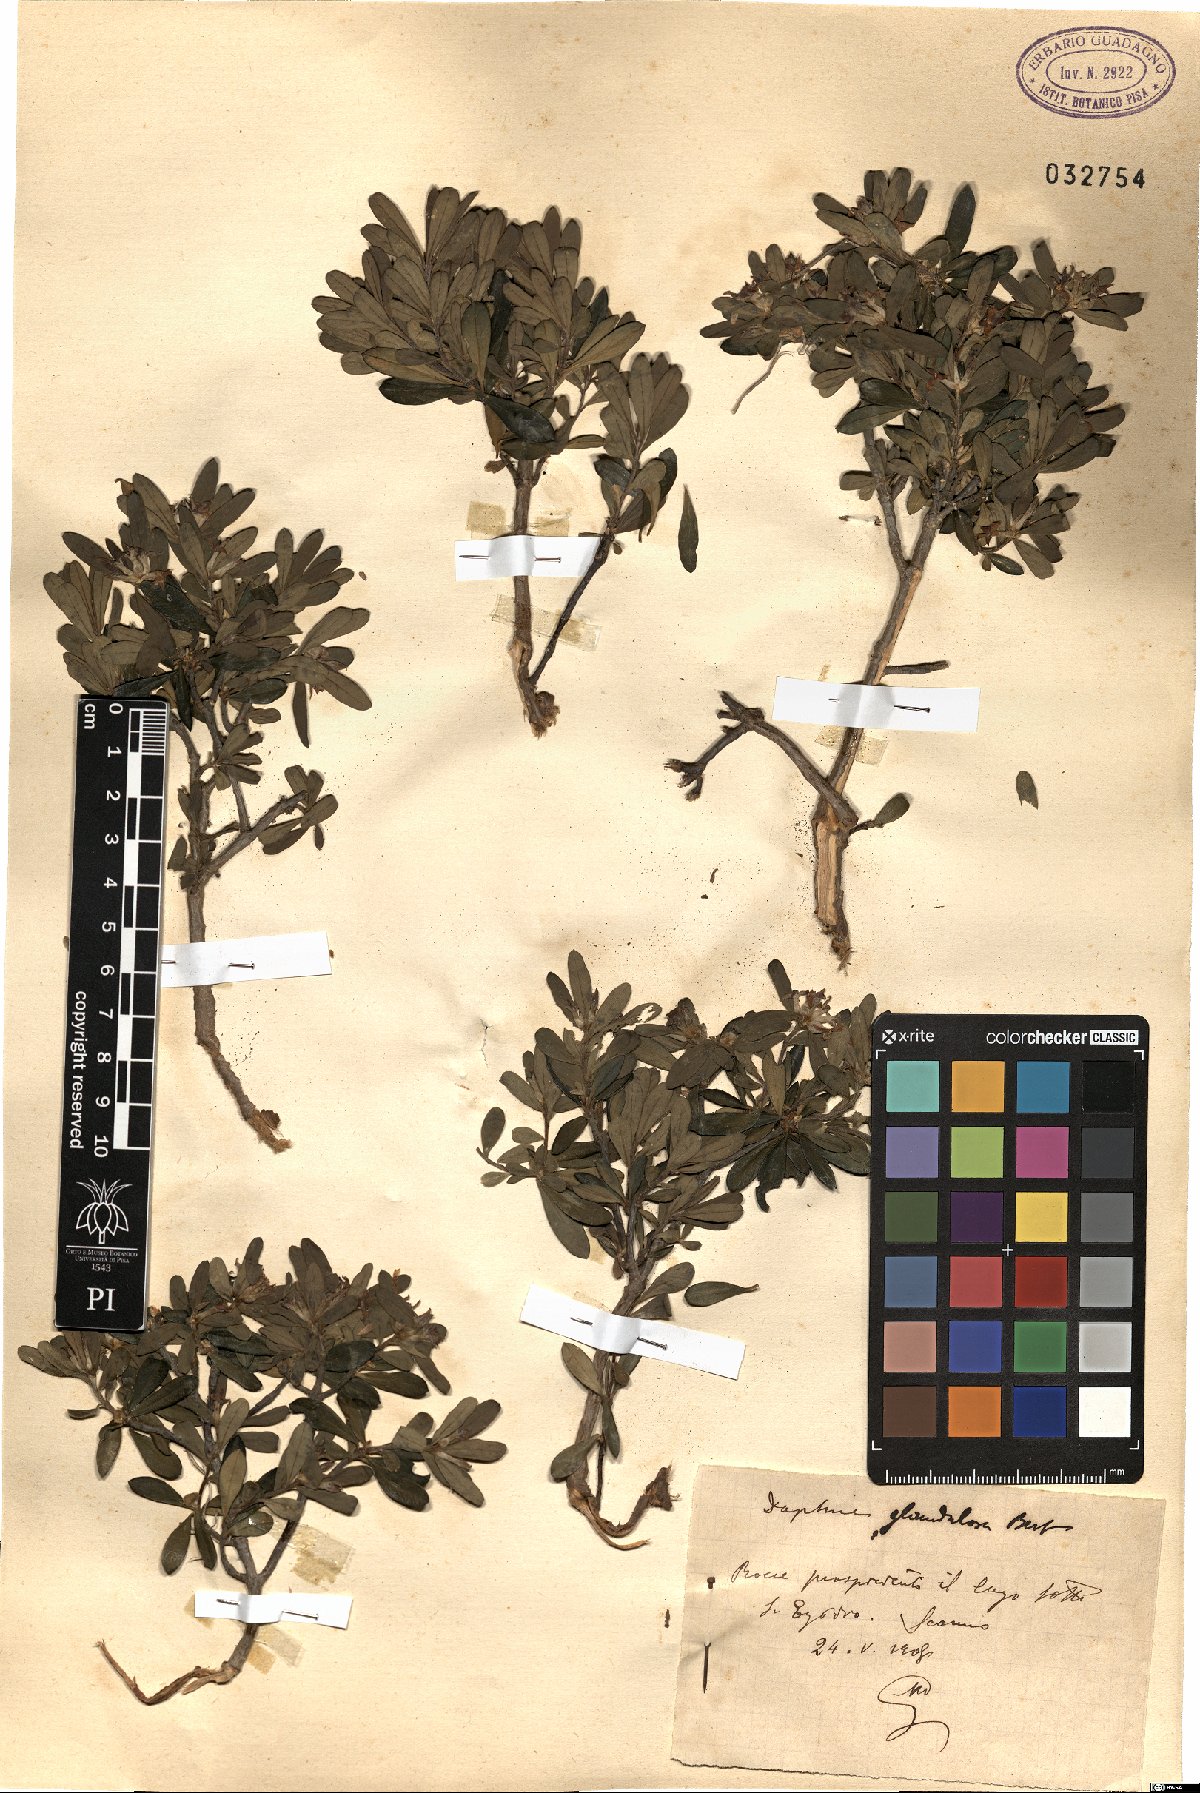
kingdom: Plantae
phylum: Tracheophyta
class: Magnoliopsida
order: Malvales
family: Thymelaeaceae
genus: Daphne
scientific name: Daphne oleoides
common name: Spurge-olive
